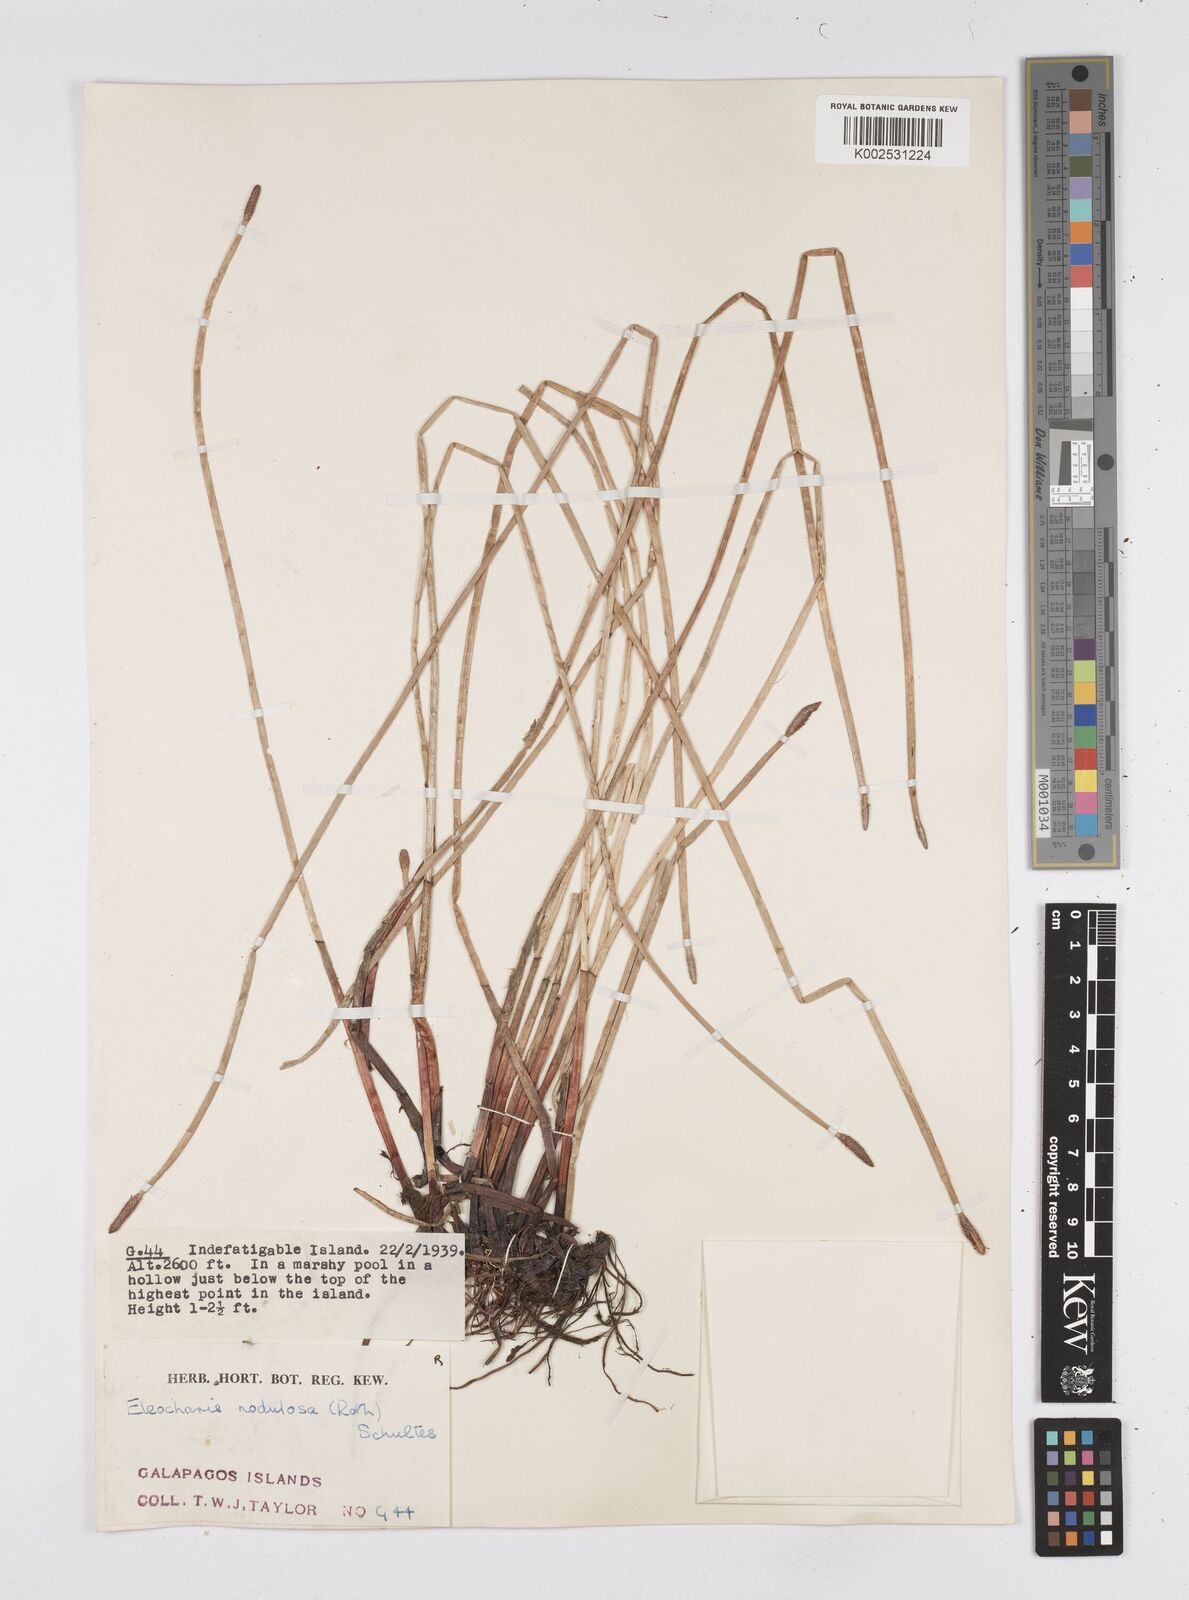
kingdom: Plantae
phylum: Tracheophyta
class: Liliopsida
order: Poales
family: Cyperaceae
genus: Eleocharis
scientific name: Eleocharis montana
